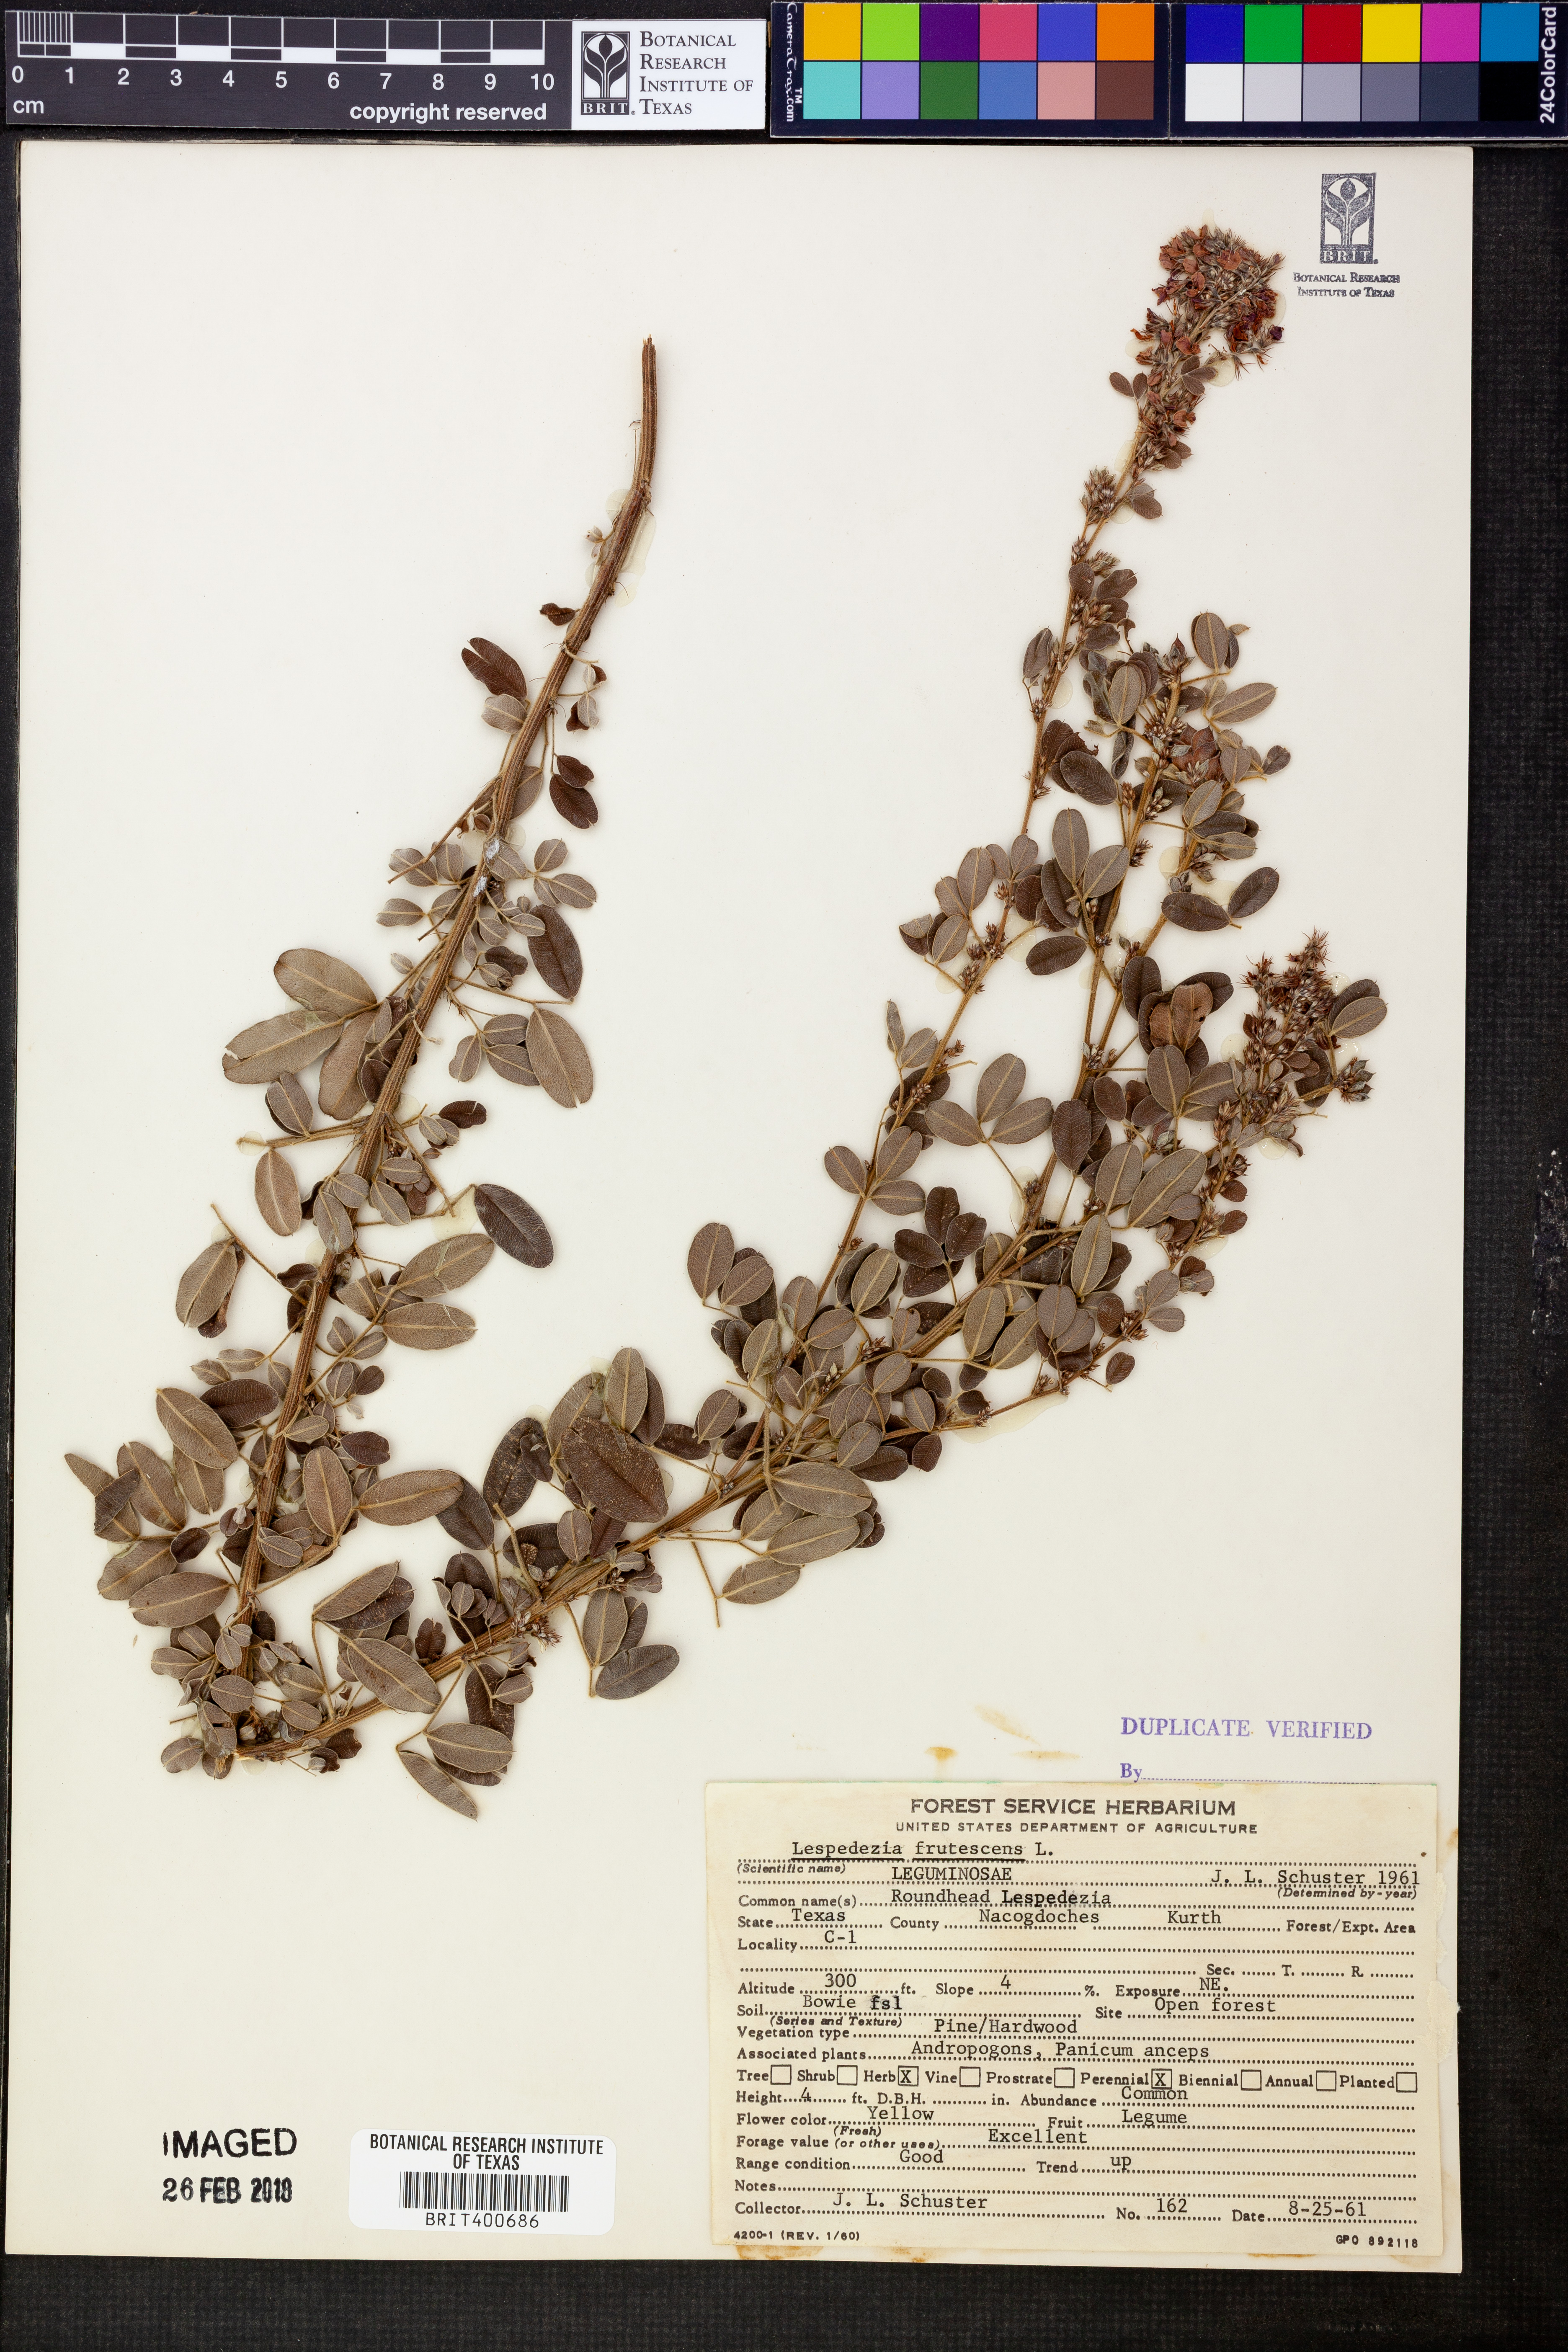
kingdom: Plantae
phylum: Tracheophyta
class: Magnoliopsida
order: Fabales
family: Fabaceae
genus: Lespedeza
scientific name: Lespedeza violacea
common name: Wand bush-clover
